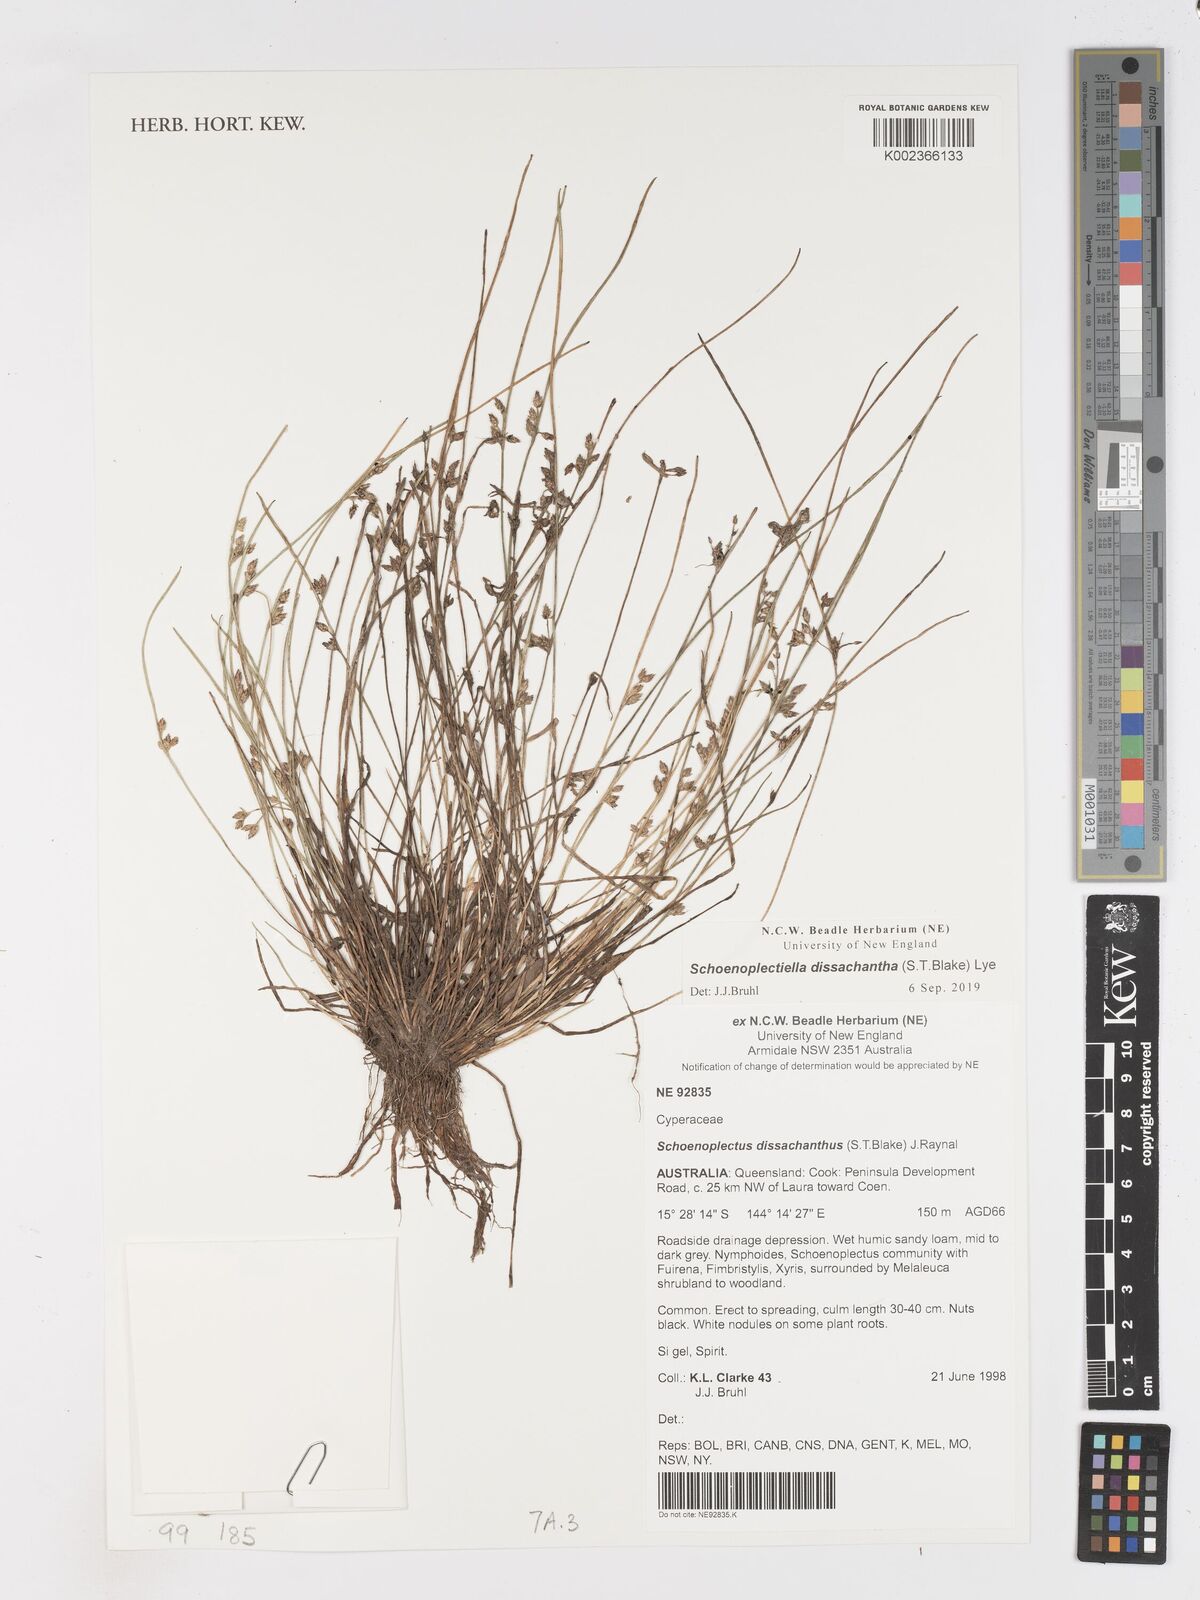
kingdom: Plantae
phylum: Tracheophyta
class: Liliopsida
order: Poales
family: Cyperaceae
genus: Schoenoplectiella
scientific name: Schoenoplectiella dissachantha
